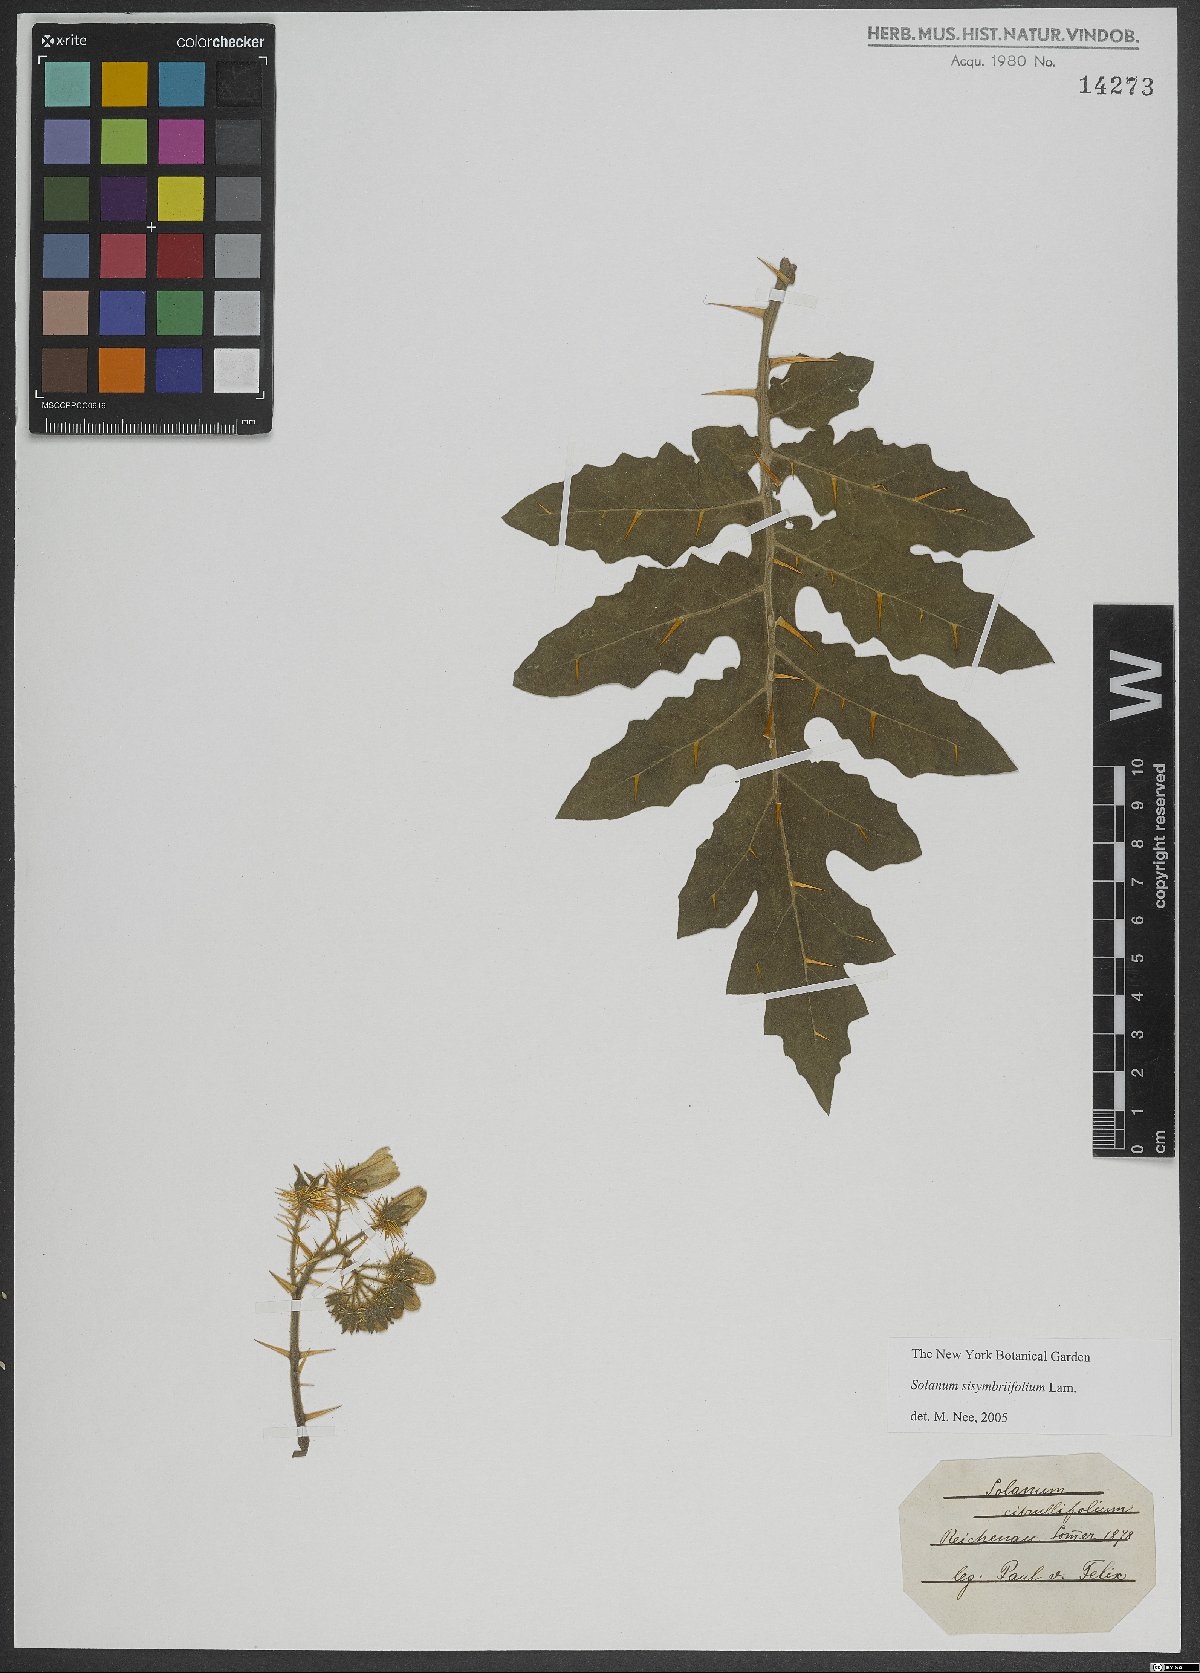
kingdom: Plantae
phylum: Tracheophyta
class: Magnoliopsida
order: Solanales
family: Solanaceae
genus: Solanum
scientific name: Solanum sisymbriifolium
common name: Red buffalo-bur
